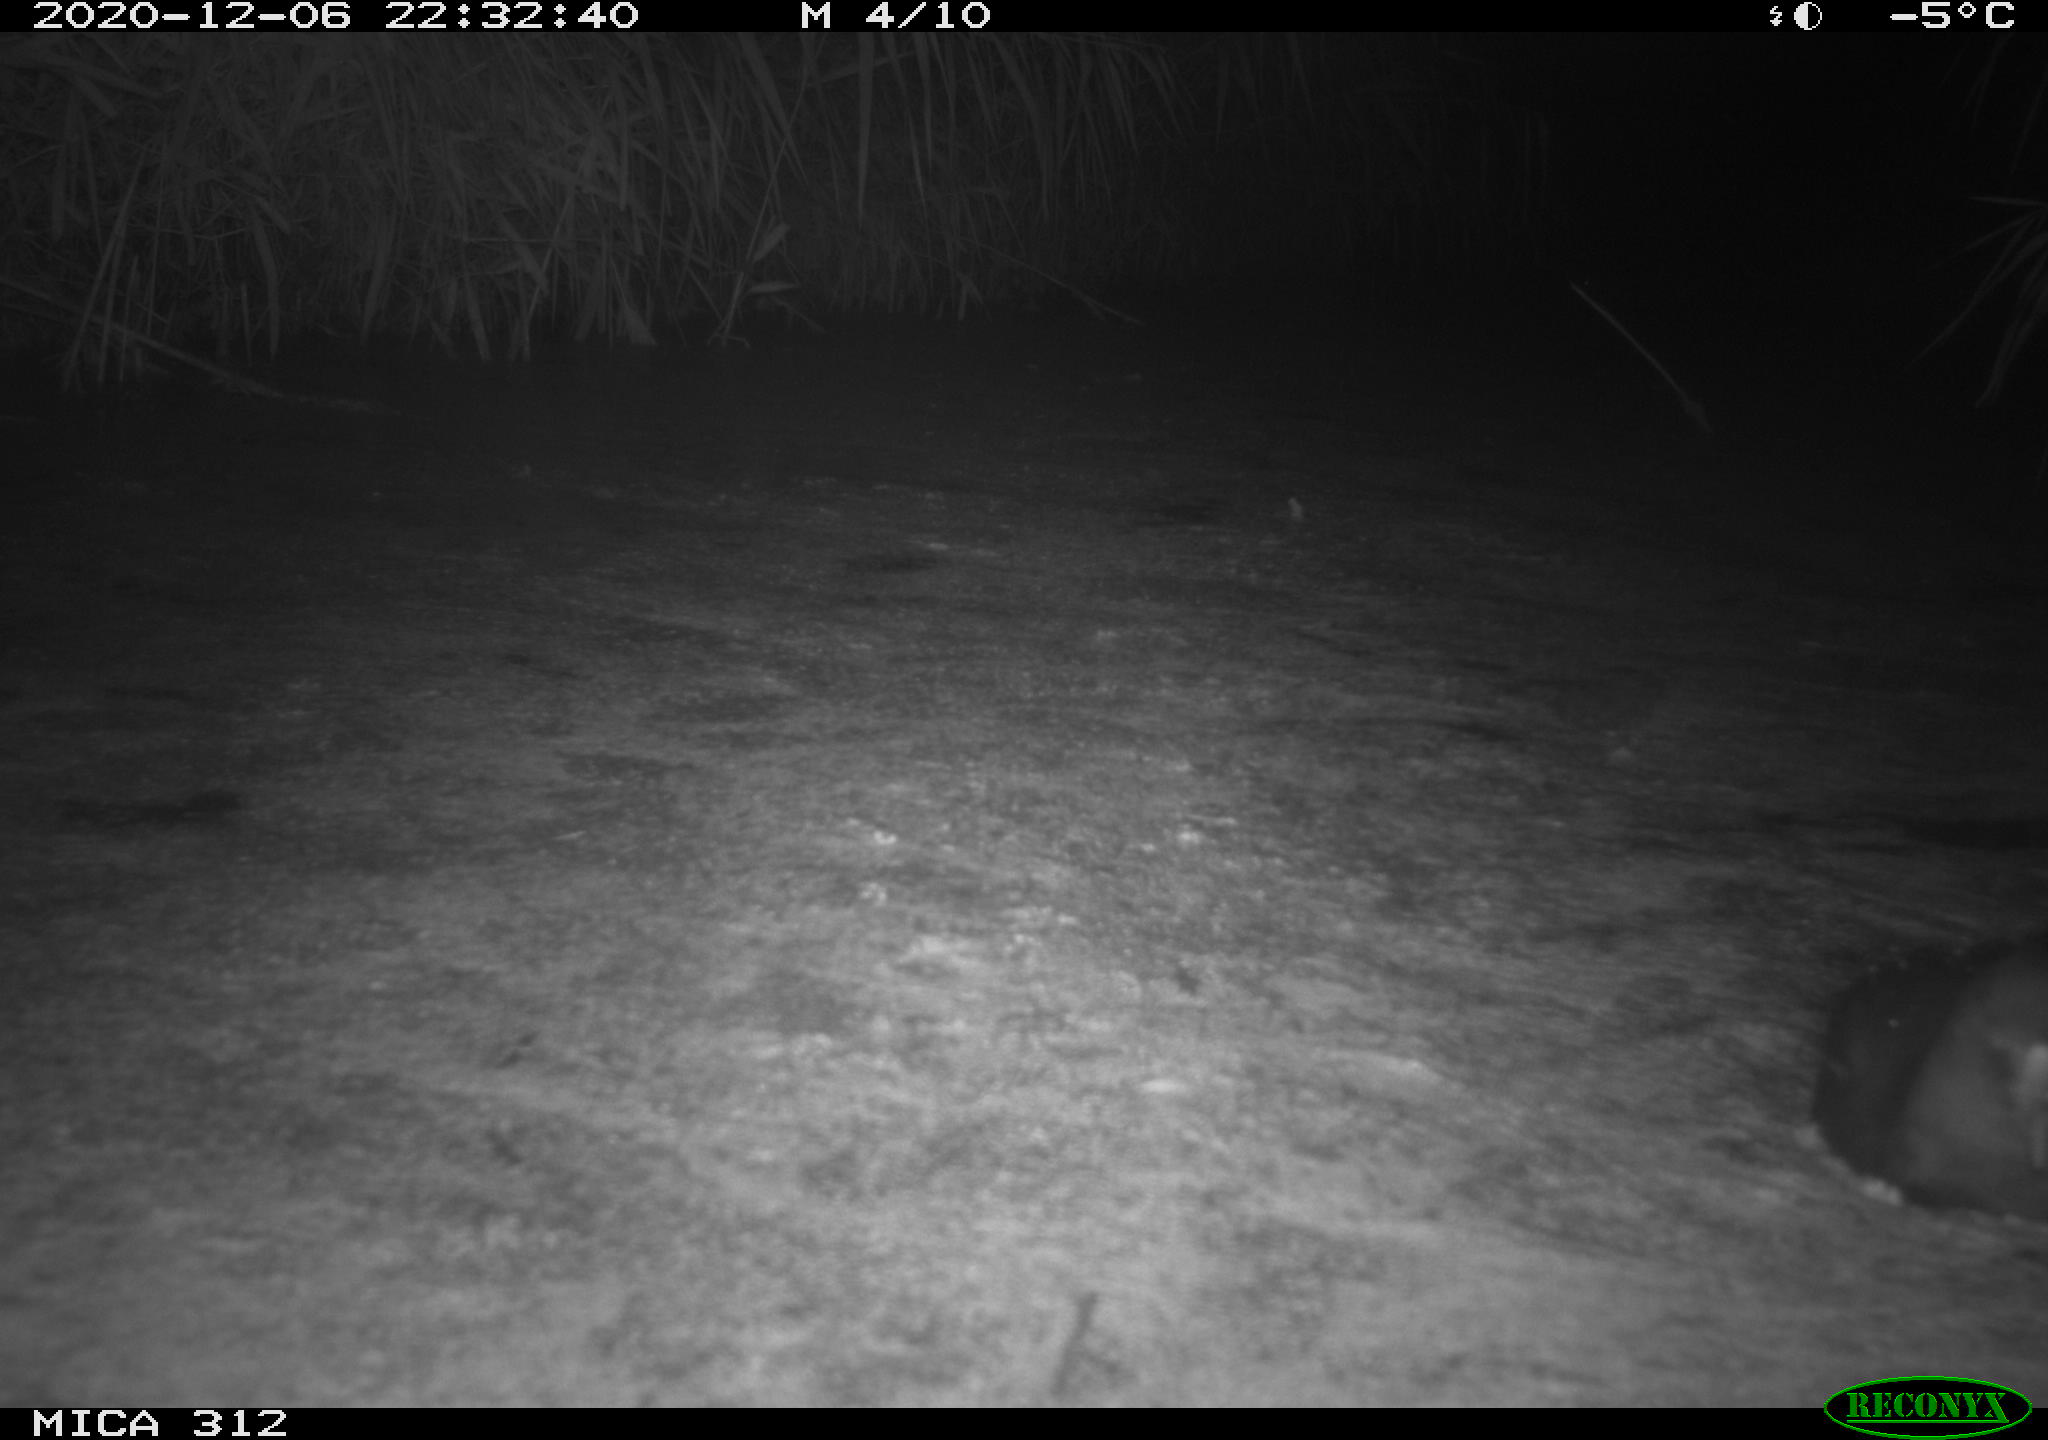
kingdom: Animalia
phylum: Chordata
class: Aves
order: Gruiformes
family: Rallidae
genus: Gallinula
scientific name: Gallinula chloropus
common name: Common moorhen
